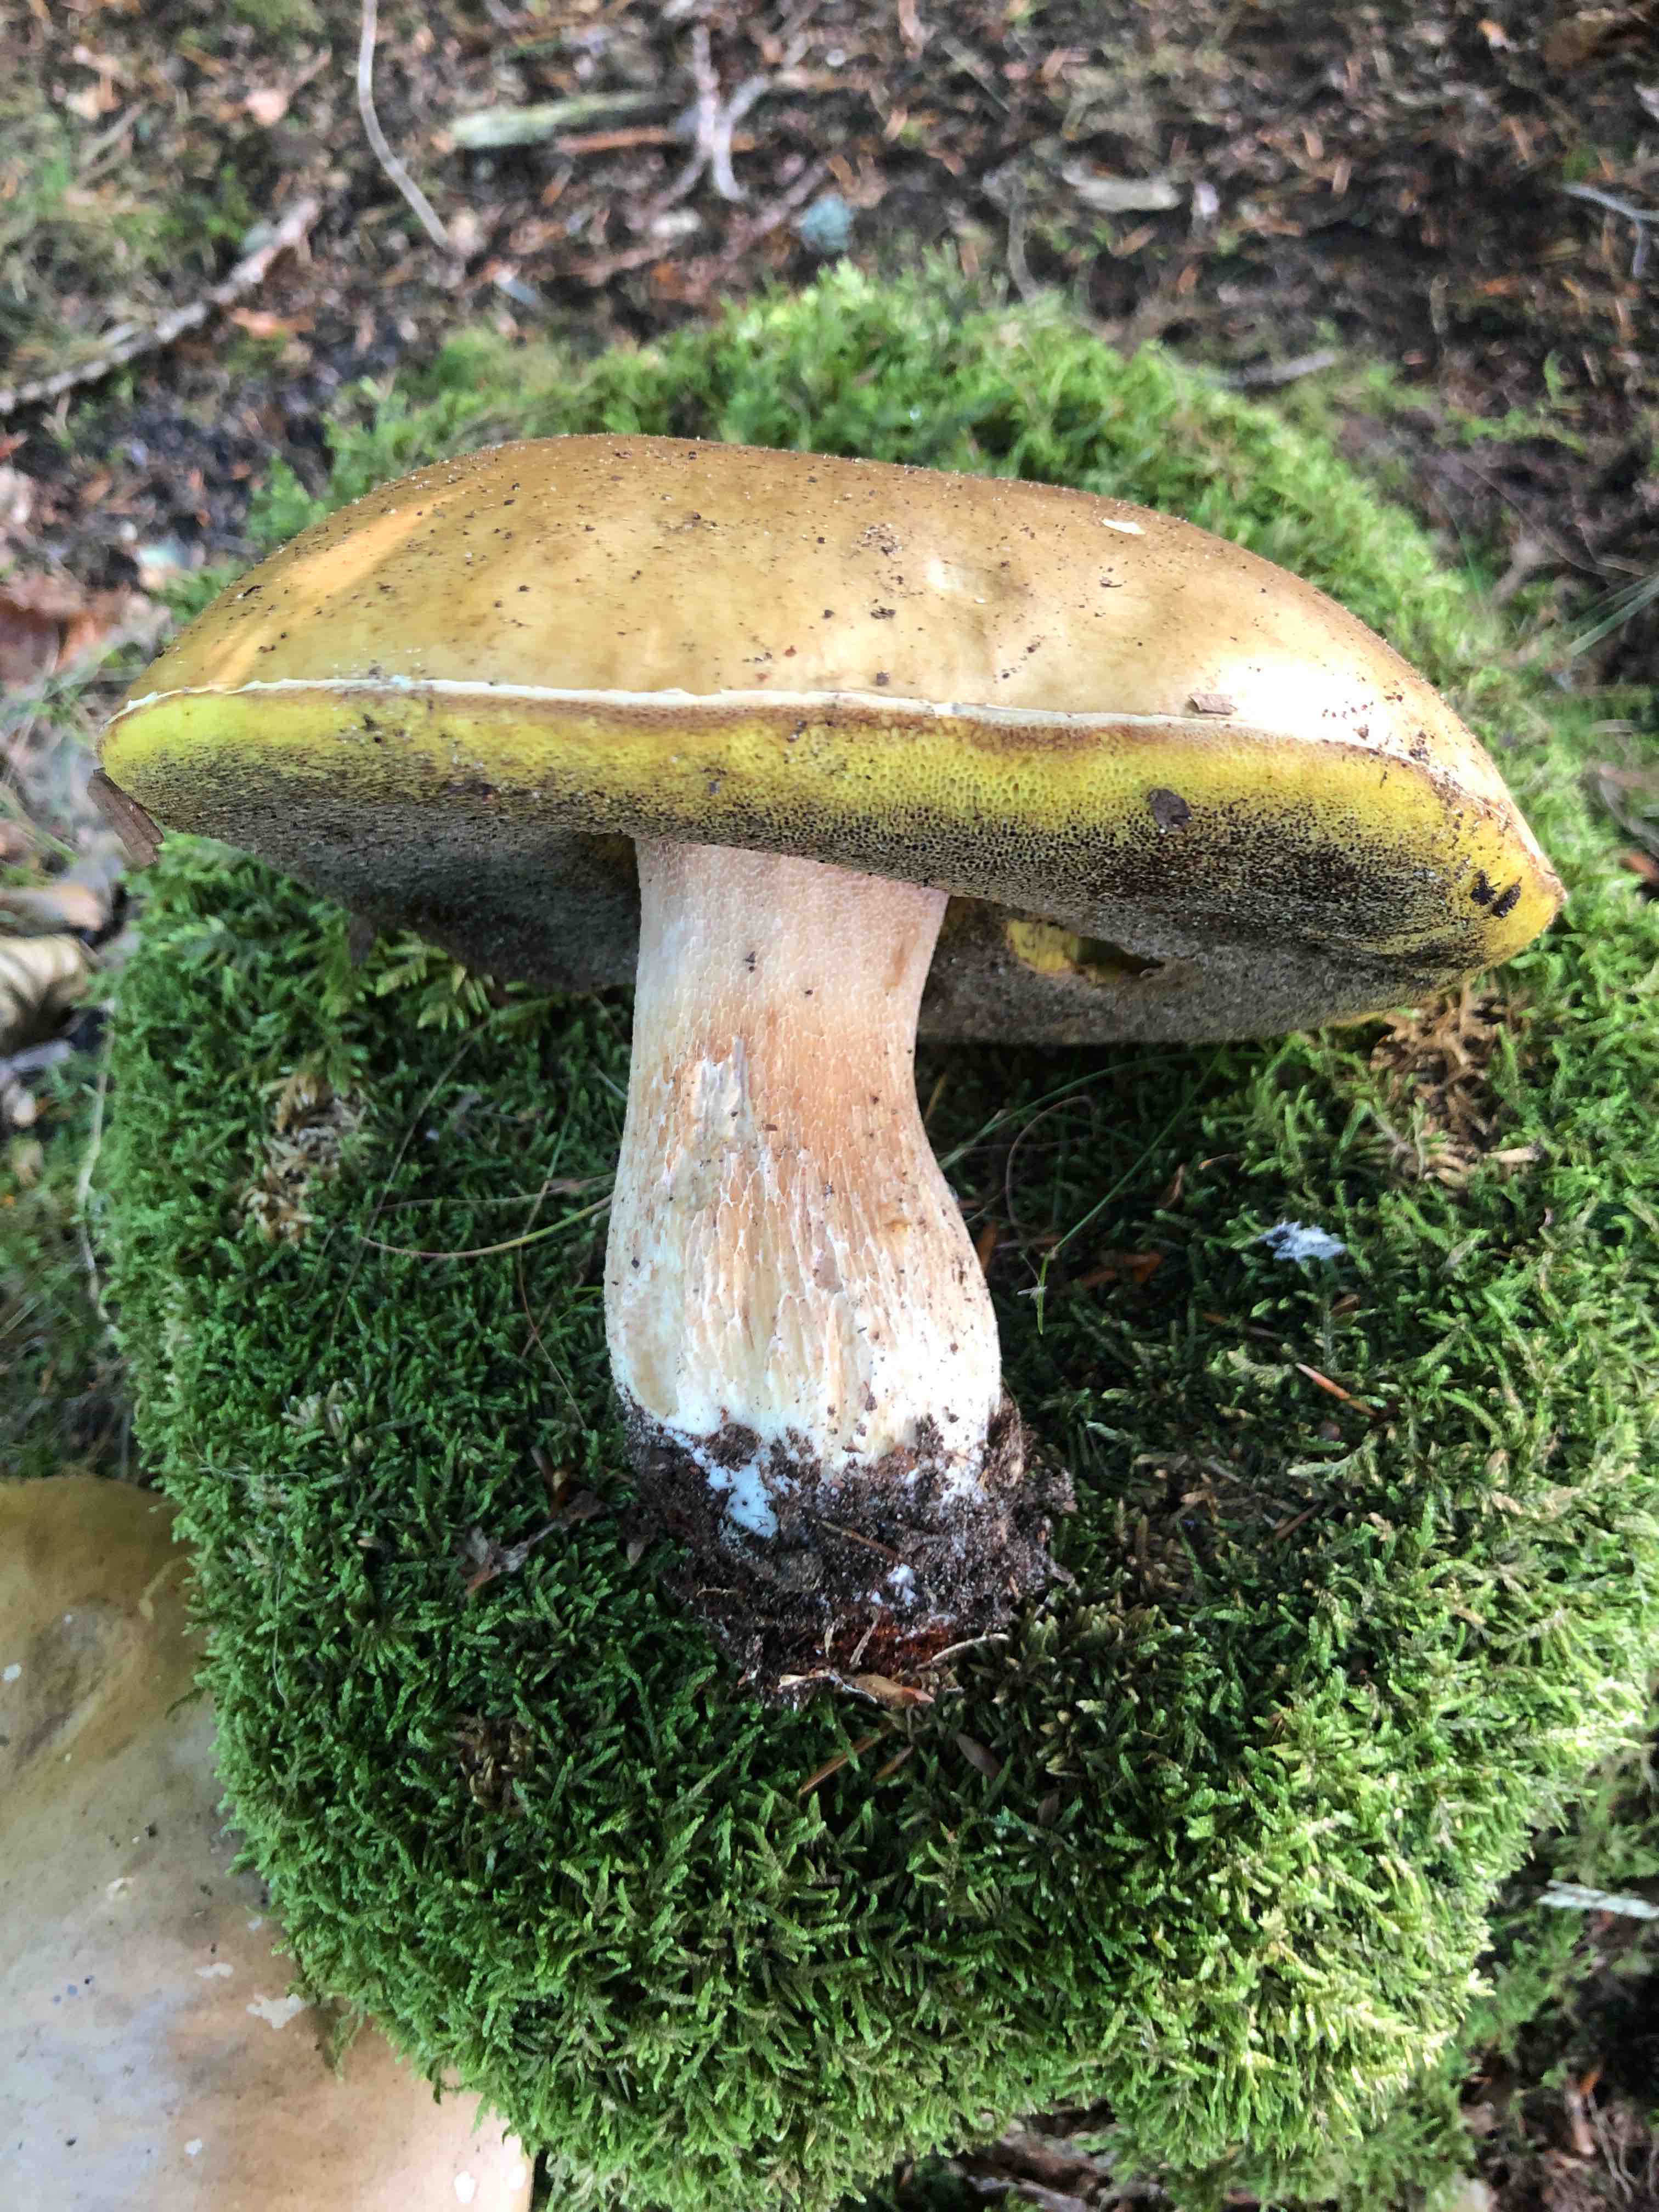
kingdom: Fungi
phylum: Basidiomycota
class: Agaricomycetes
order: Boletales
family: Boletaceae
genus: Boletus
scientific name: Boletus edulis
